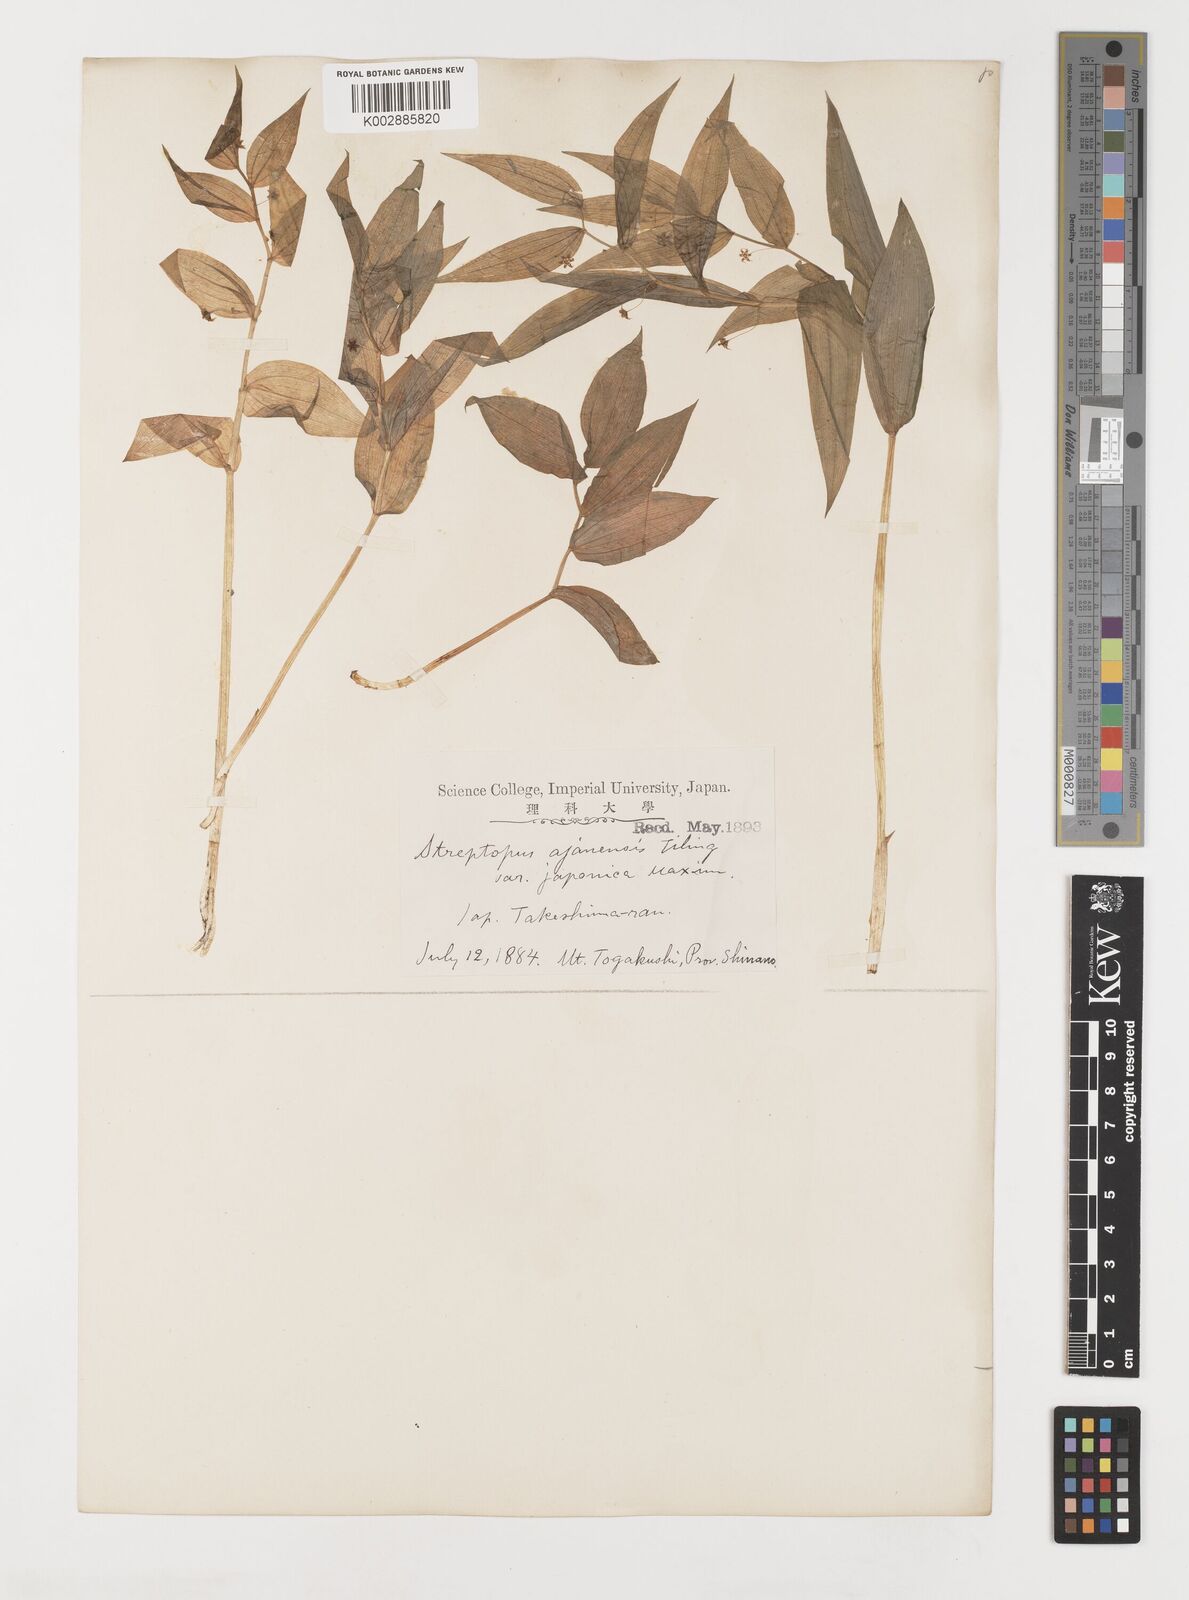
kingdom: Plantae
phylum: Tracheophyta
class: Liliopsida
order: Liliales
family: Liliaceae
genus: Streptopus
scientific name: Streptopus
